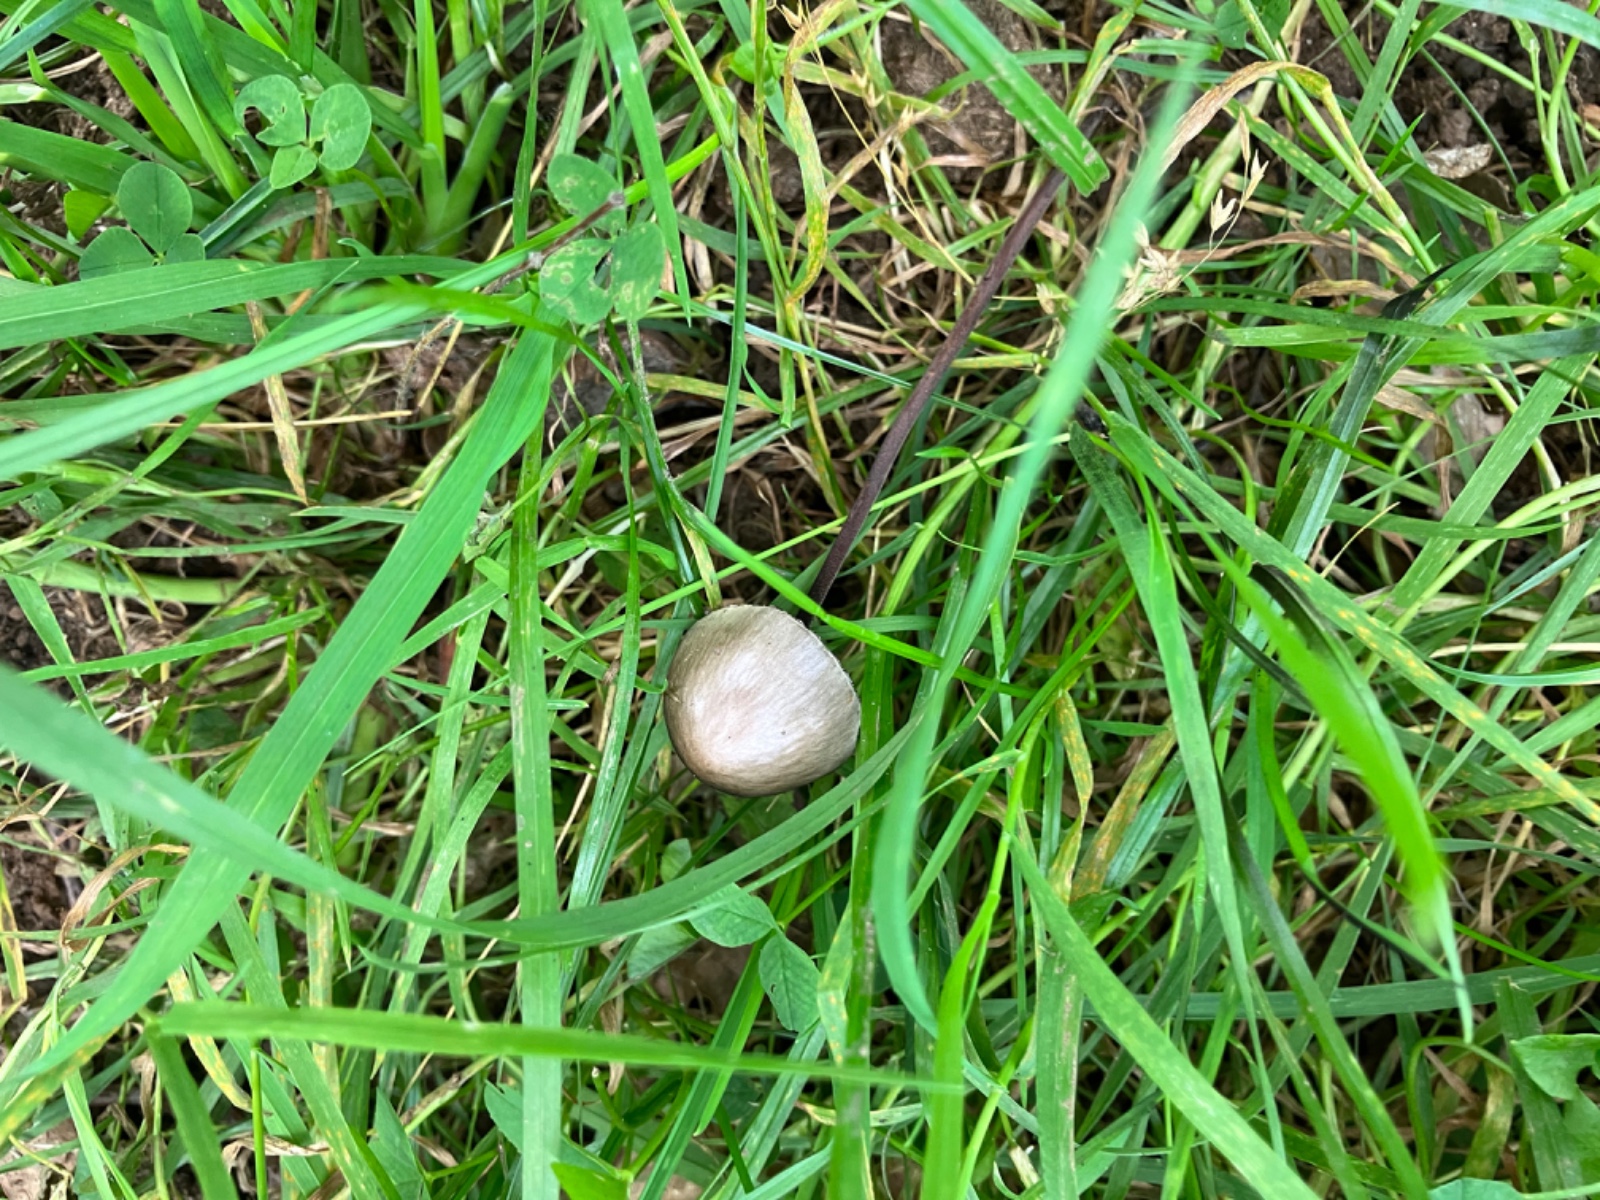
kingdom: Fungi
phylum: Basidiomycota
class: Agaricomycetes
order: Agaricales
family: Bolbitiaceae
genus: Panaeolus
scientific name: Panaeolus acuminatus
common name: høj glanshat
